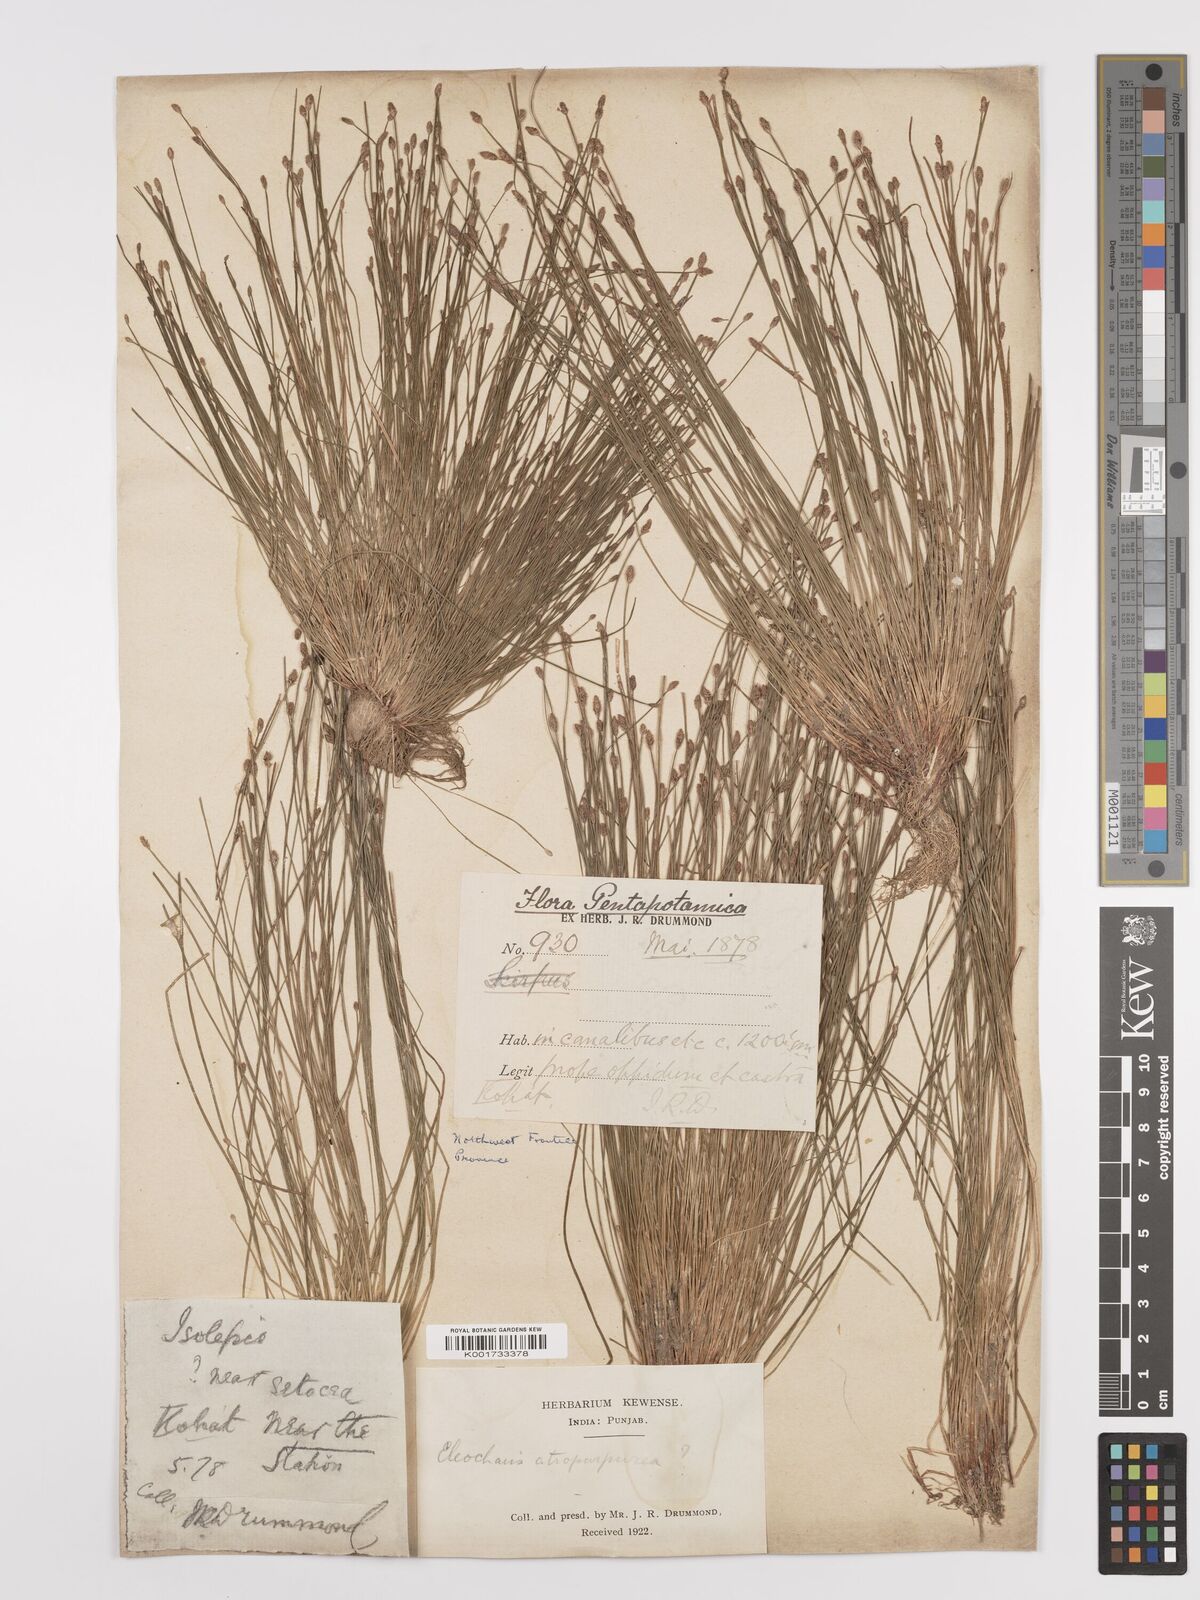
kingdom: Plantae
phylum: Tracheophyta
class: Liliopsida
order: Poales
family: Cyperaceae
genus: Eleocharis
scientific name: Eleocharis atropurpurea
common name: Purple spikerush
